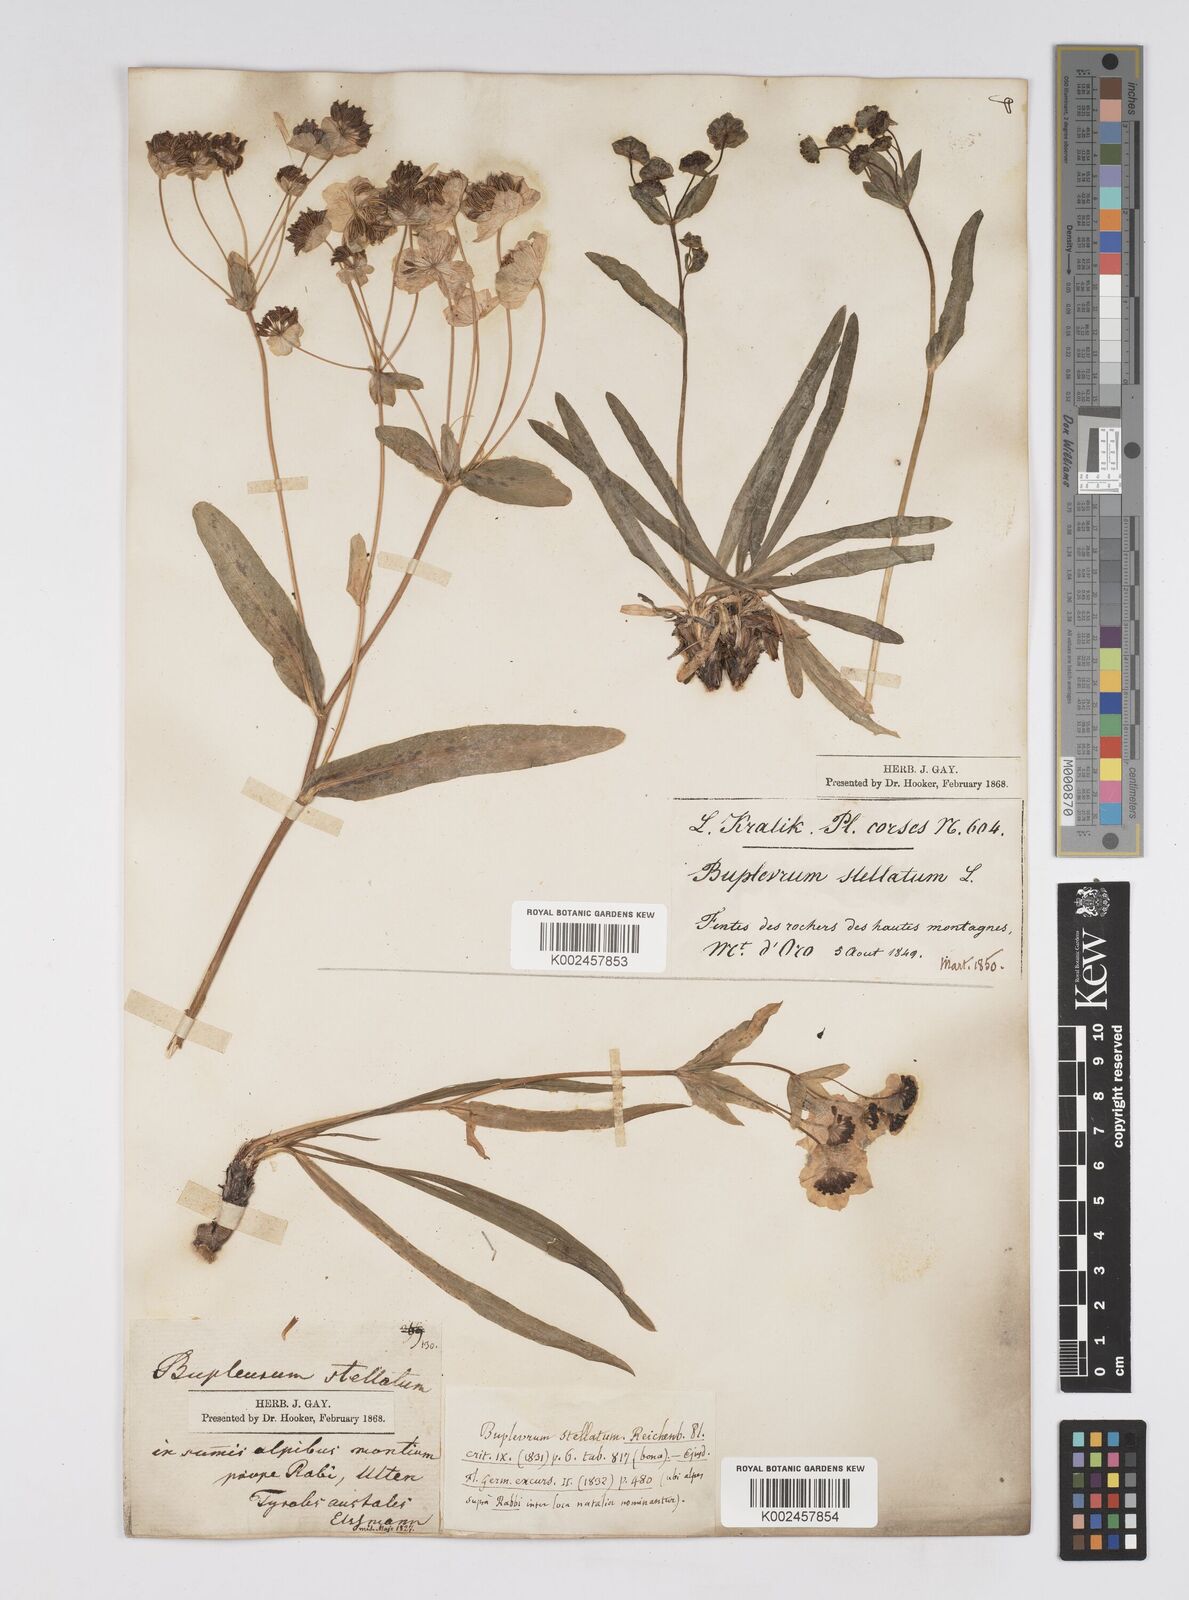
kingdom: Plantae
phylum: Tracheophyta
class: Magnoliopsida
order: Apiales
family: Apiaceae
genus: Bupleurum
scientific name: Bupleurum stellatum
